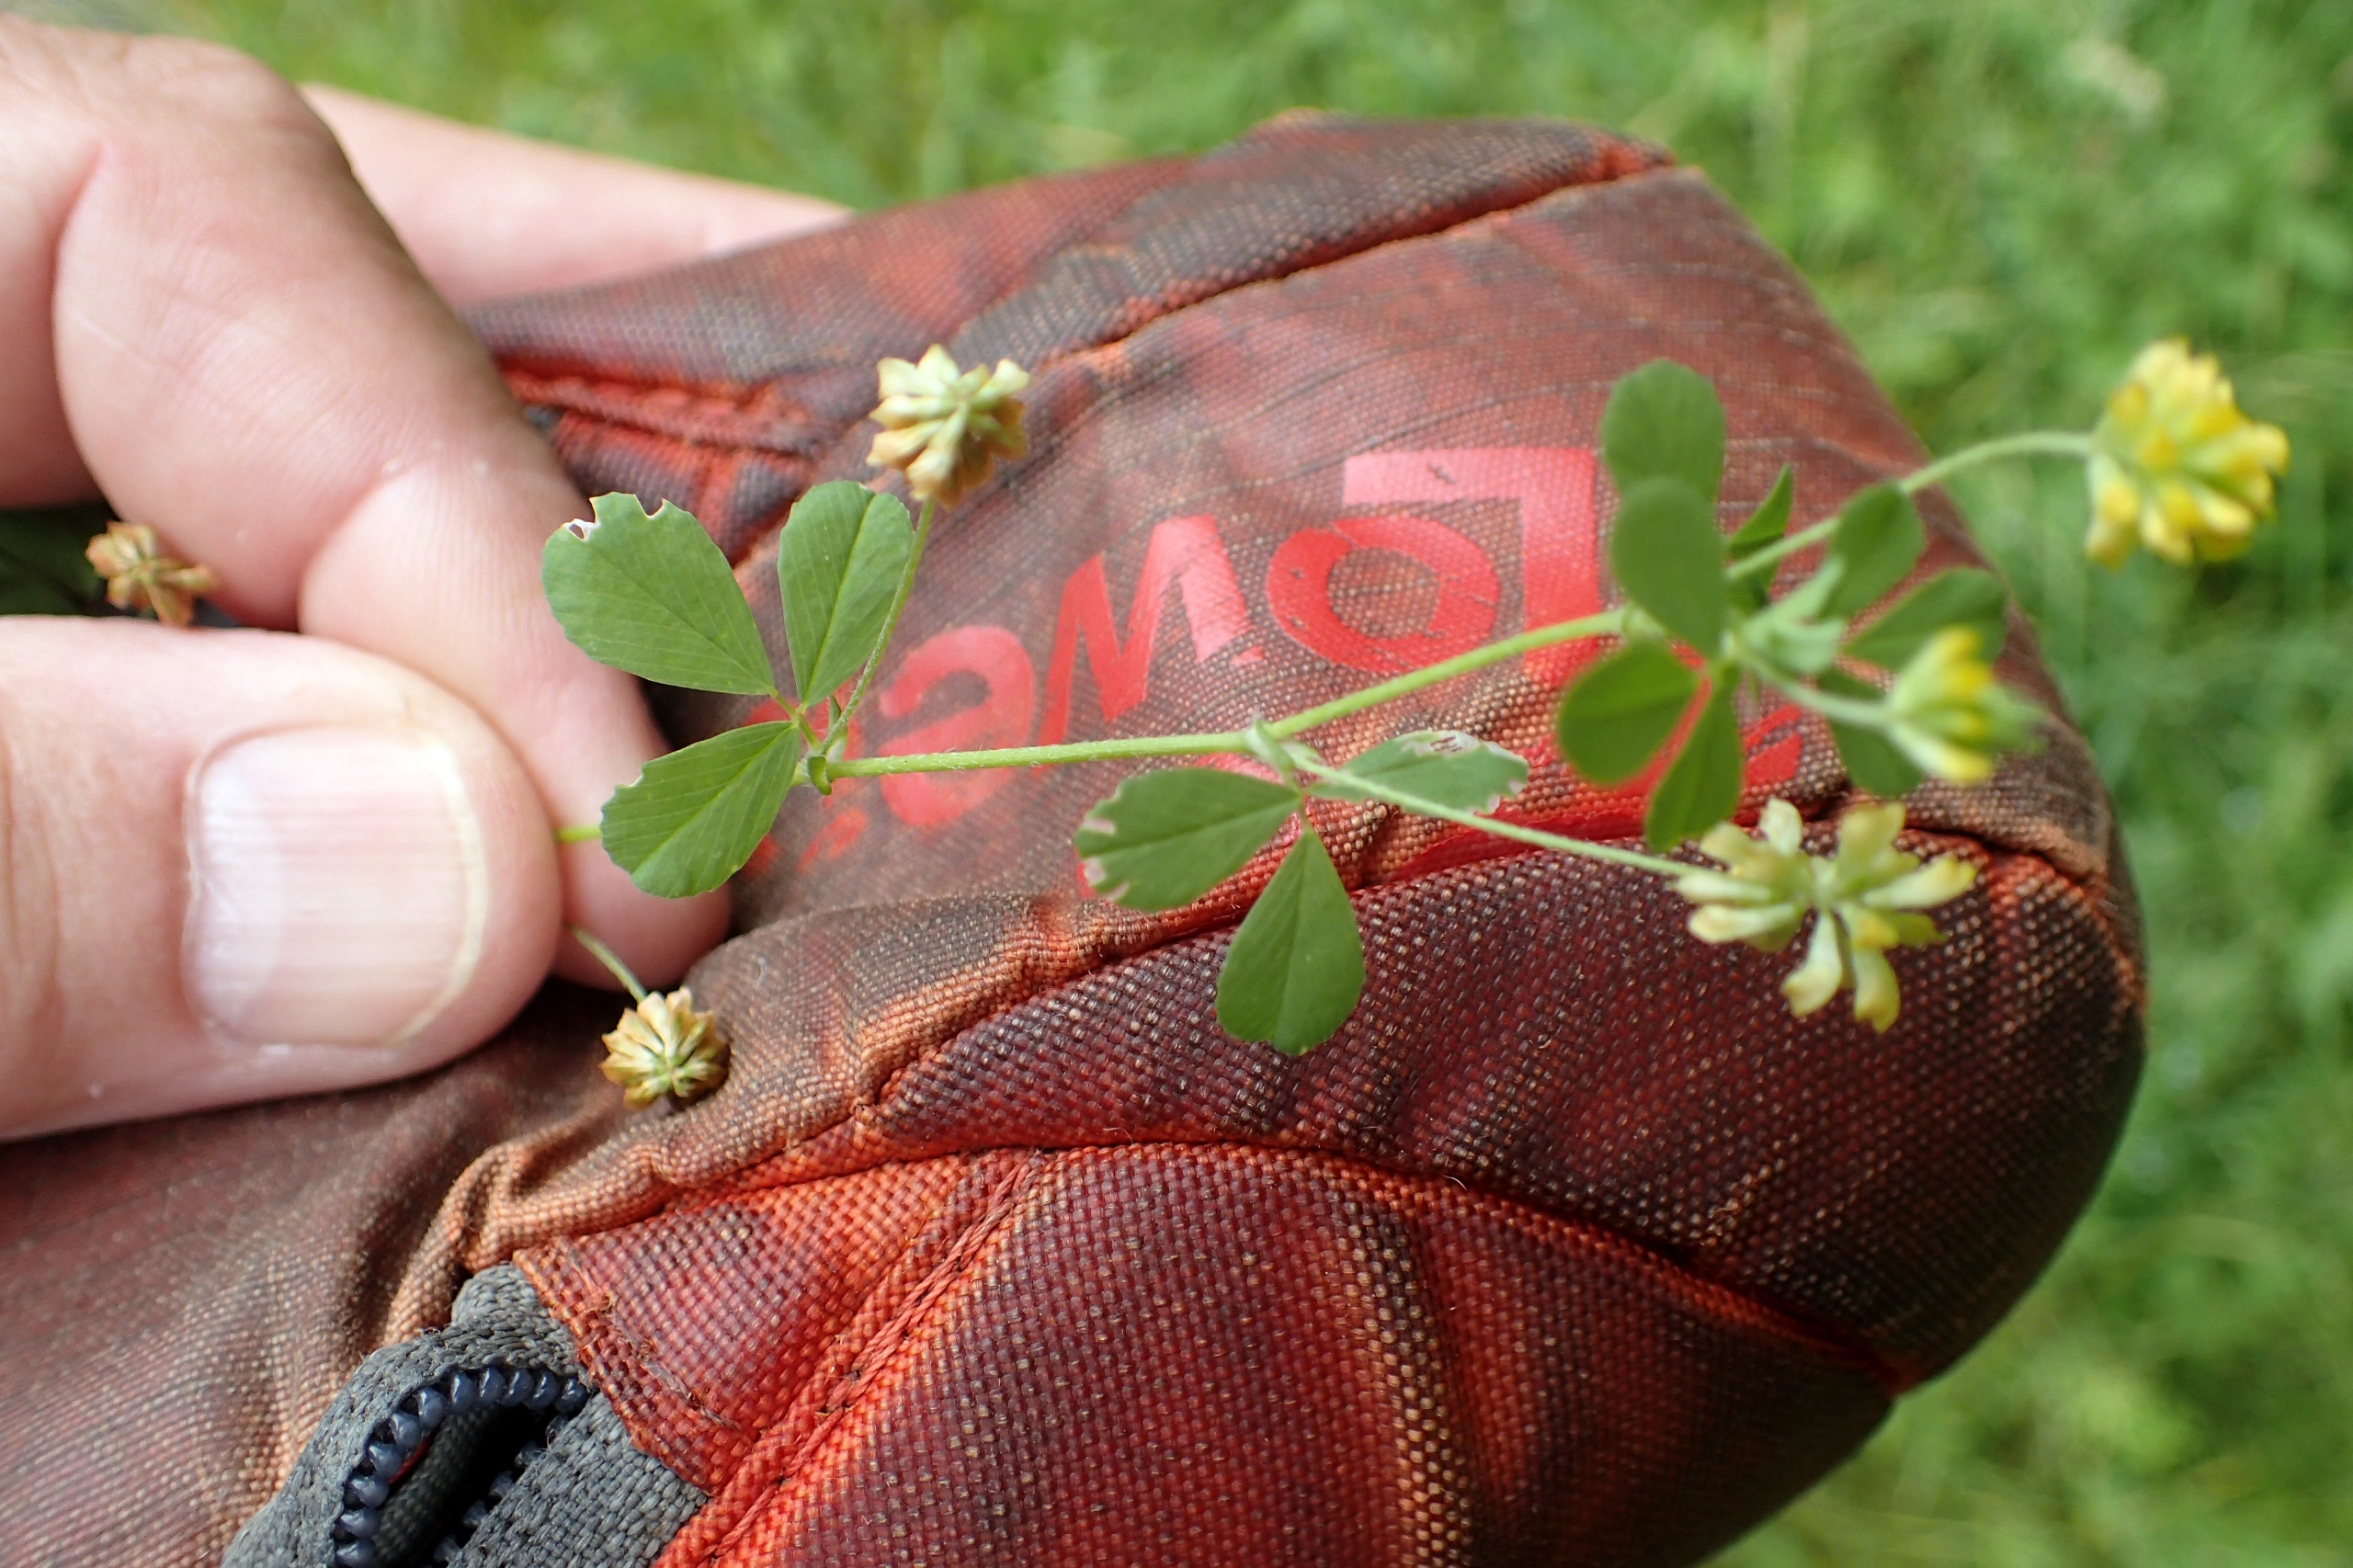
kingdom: Plantae
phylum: Tracheophyta
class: Magnoliopsida
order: Fabales
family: Fabaceae
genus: Trifolium
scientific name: Trifolium dubium
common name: Fin kløver
